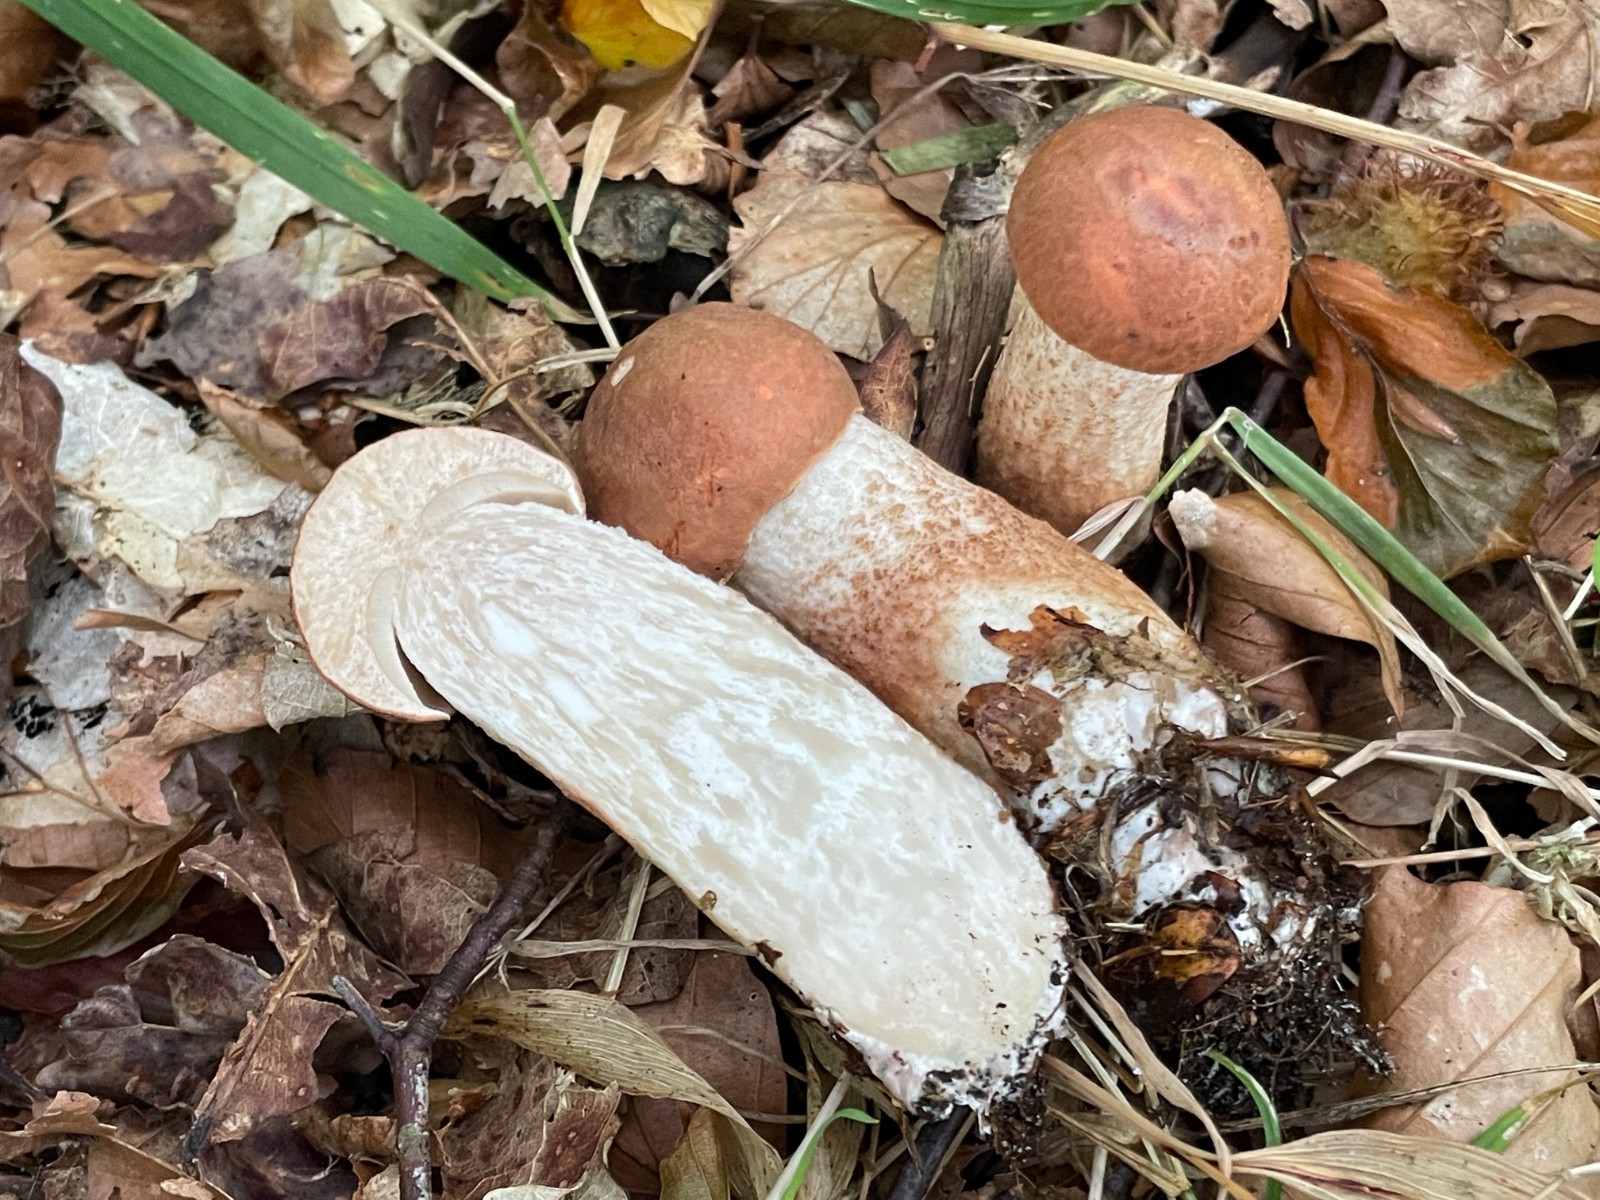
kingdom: Fungi
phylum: Basidiomycota
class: Agaricomycetes
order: Boletales
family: Boletaceae
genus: Leccinum
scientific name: Leccinum aurantiacum
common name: rustrød skælrørhat
